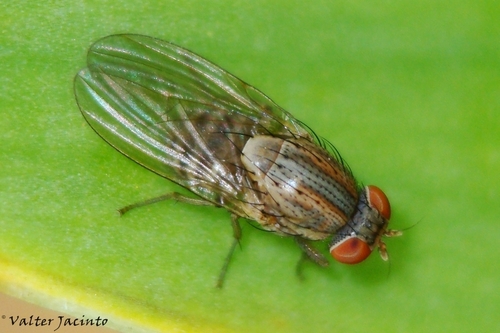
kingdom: Animalia
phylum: Arthropoda
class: Insecta
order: Diptera
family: Lauxaniidae
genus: Minettia
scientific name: Minettia fasciata
